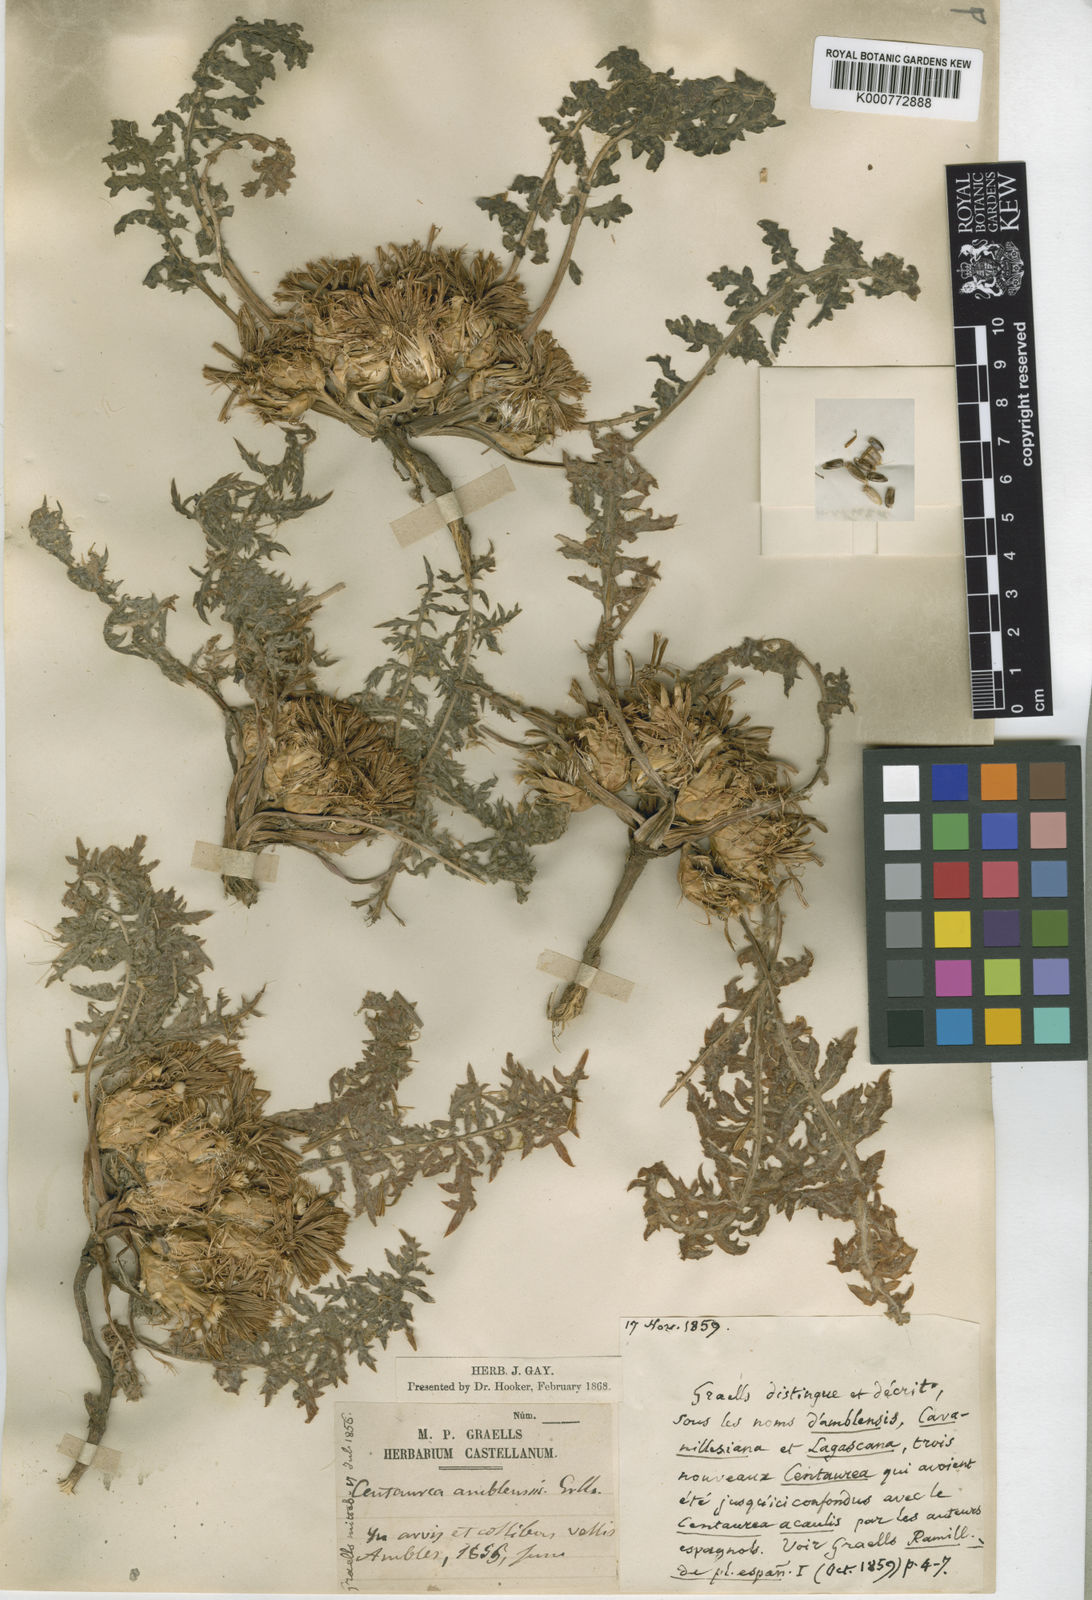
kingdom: Plantae
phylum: Tracheophyta
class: Magnoliopsida
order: Asterales
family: Asteraceae
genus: Centaurea
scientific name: Centaurea amblensis
